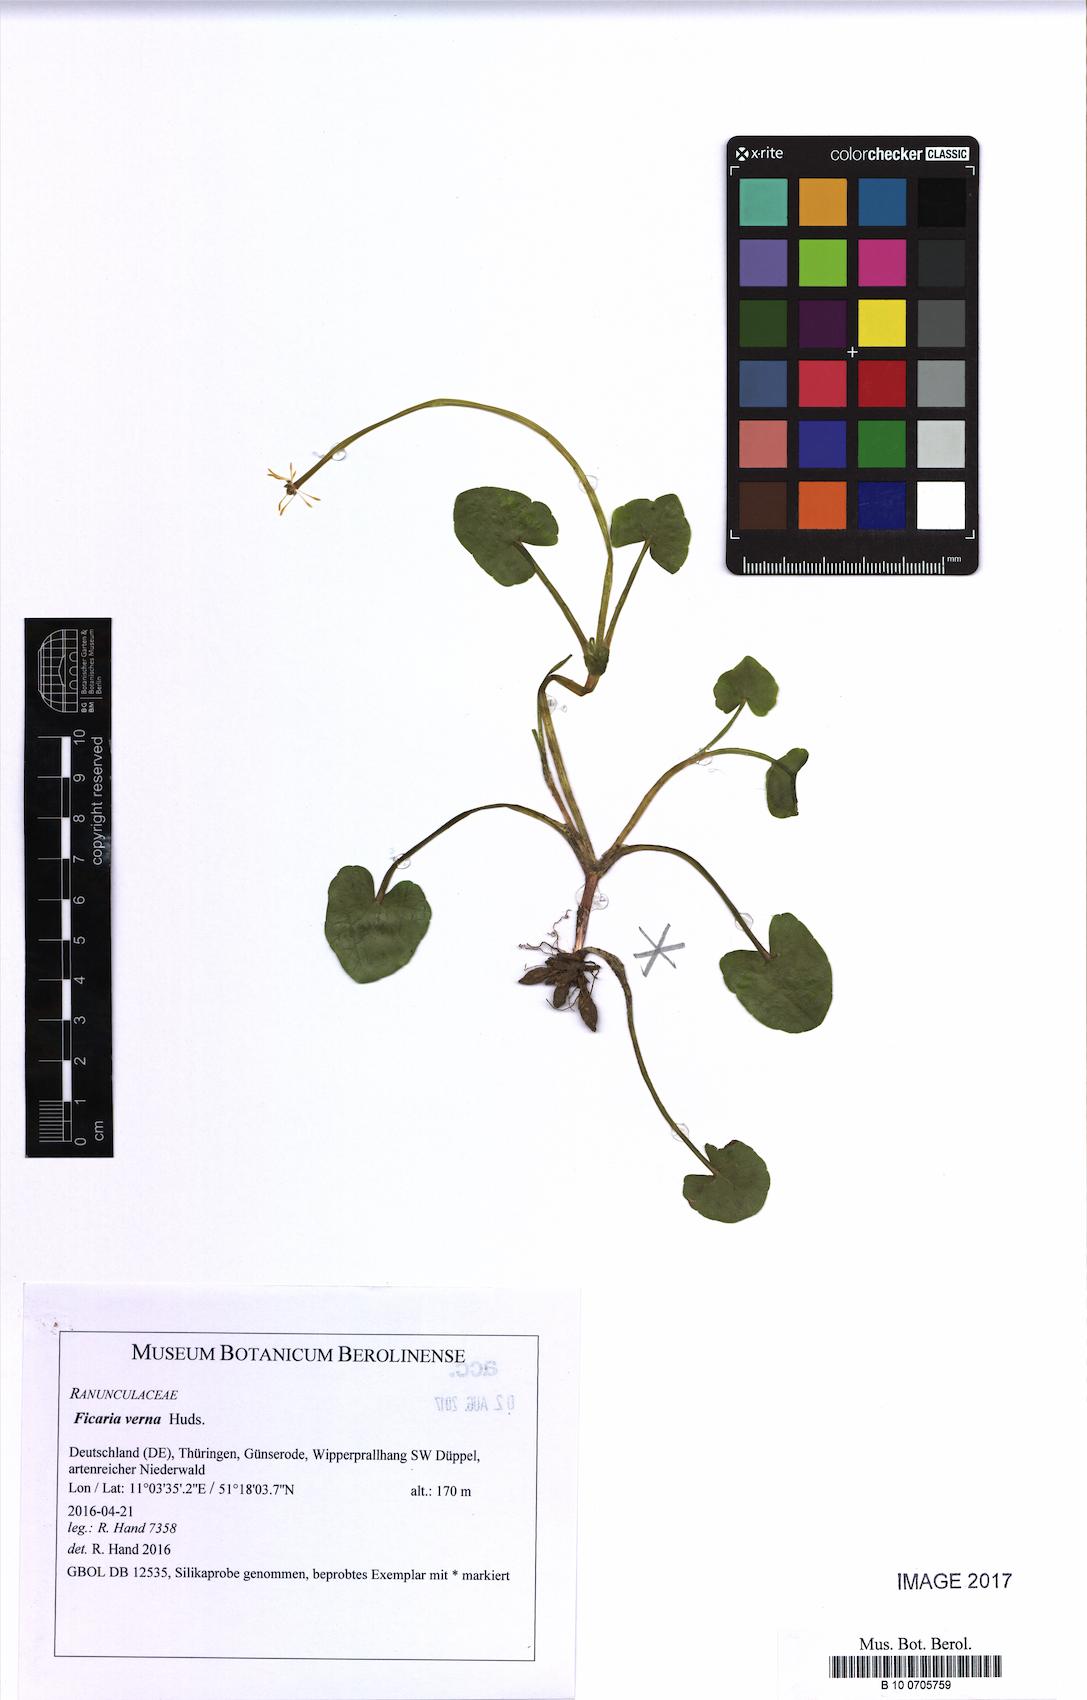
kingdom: Plantae
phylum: Tracheophyta
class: Magnoliopsida
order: Ranunculales
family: Ranunculaceae
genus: Ficaria
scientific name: Ficaria verna
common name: Lesser celandine
